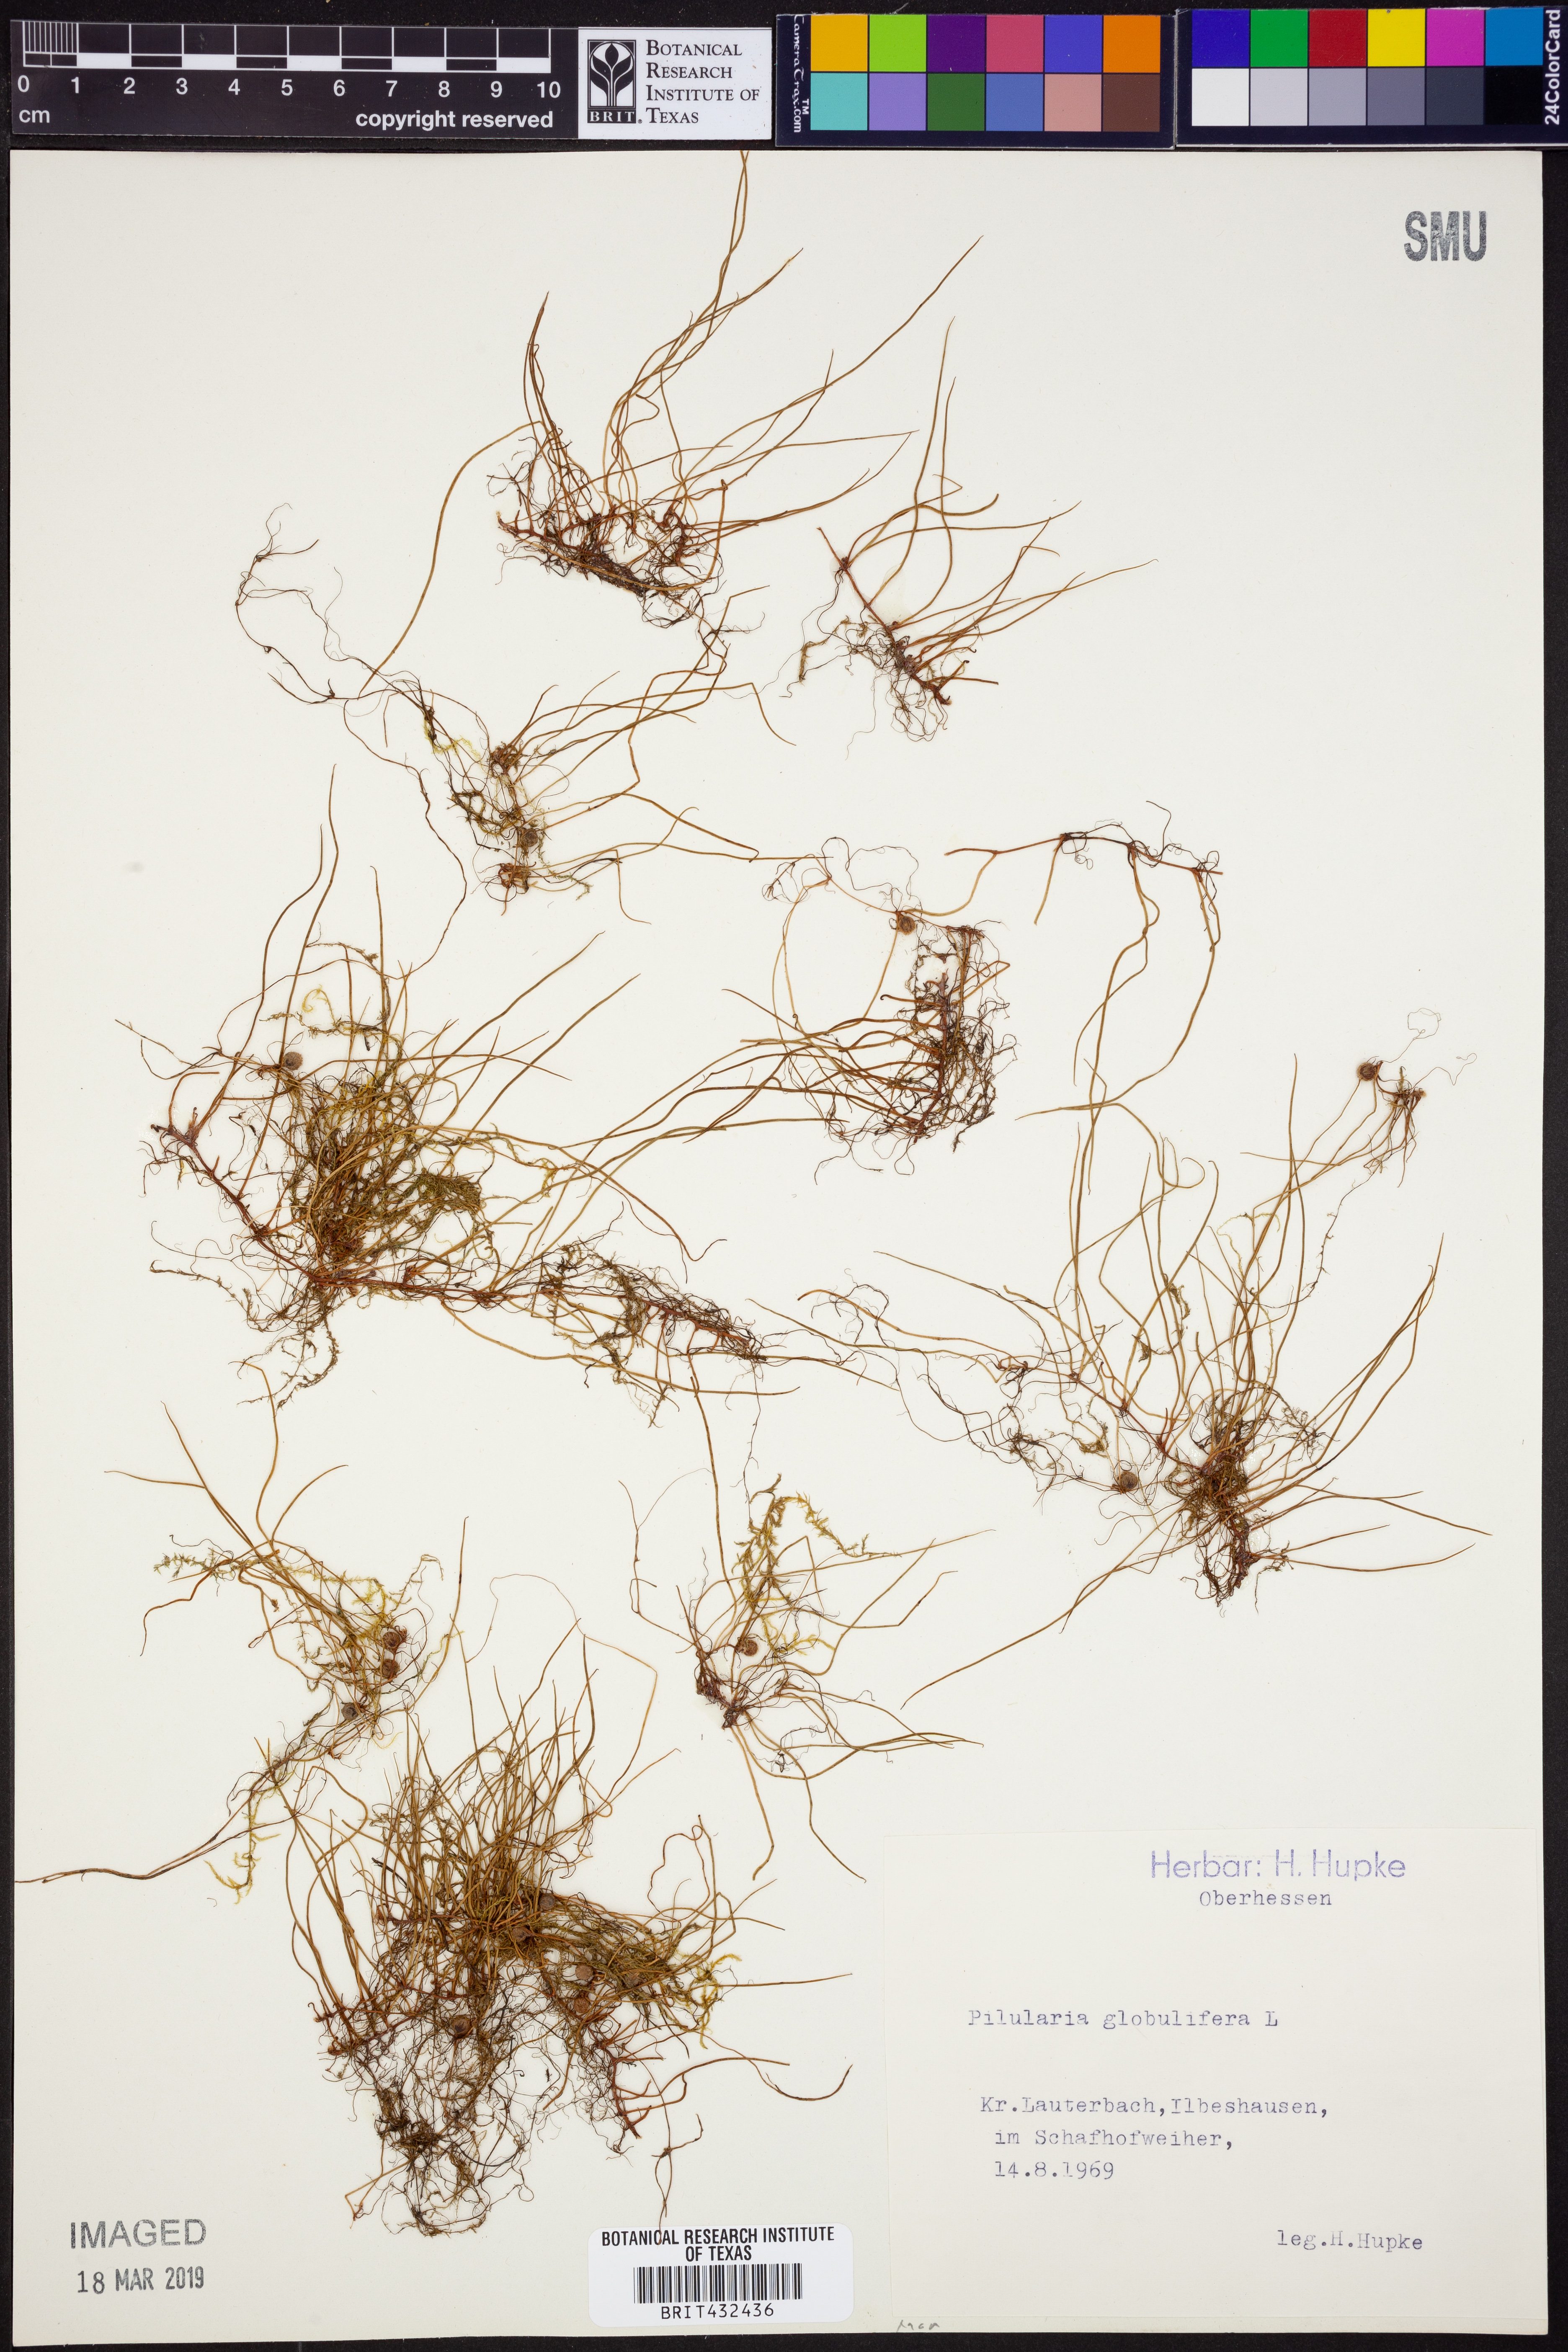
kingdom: Plantae
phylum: Tracheophyta
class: Polypodiopsida
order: Salviniales
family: Marsileaceae
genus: Pilularia
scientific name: Pilularia globulifera
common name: Pillwort
